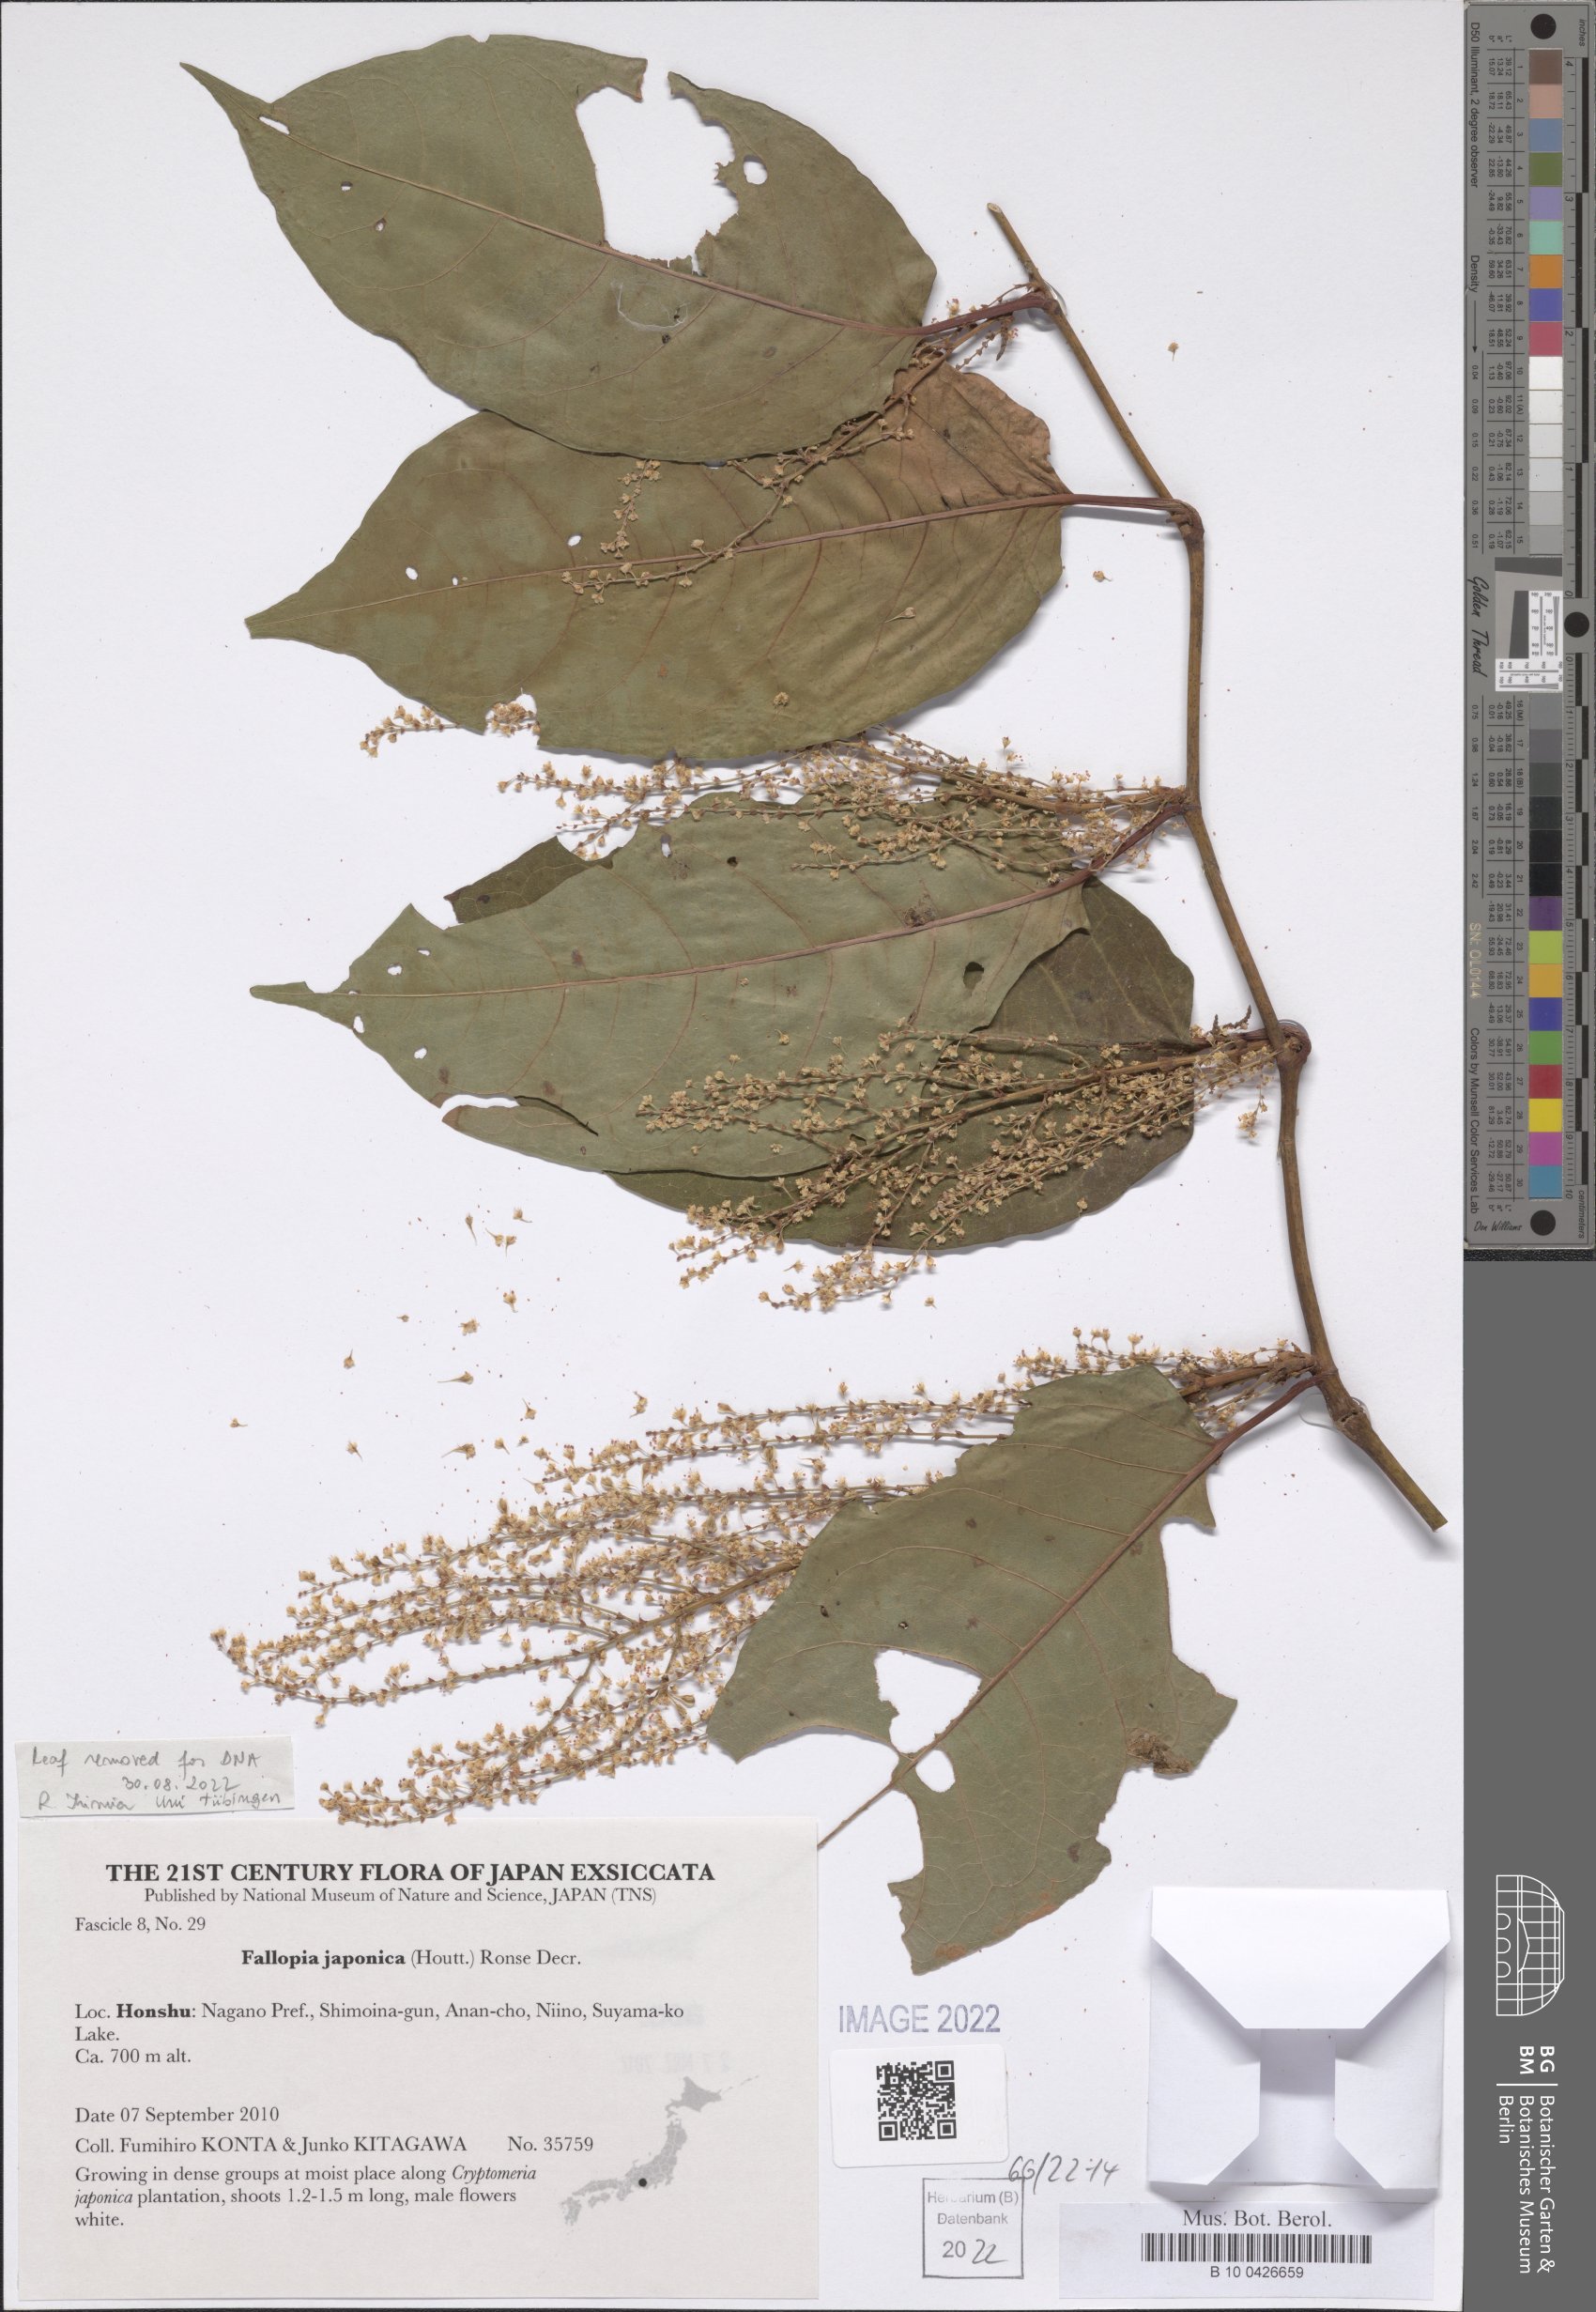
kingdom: Plantae
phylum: Tracheophyta
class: Magnoliopsida
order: Caryophyllales
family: Polygonaceae
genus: Reynoutria
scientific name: Reynoutria japonica
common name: Japanese knotweed
